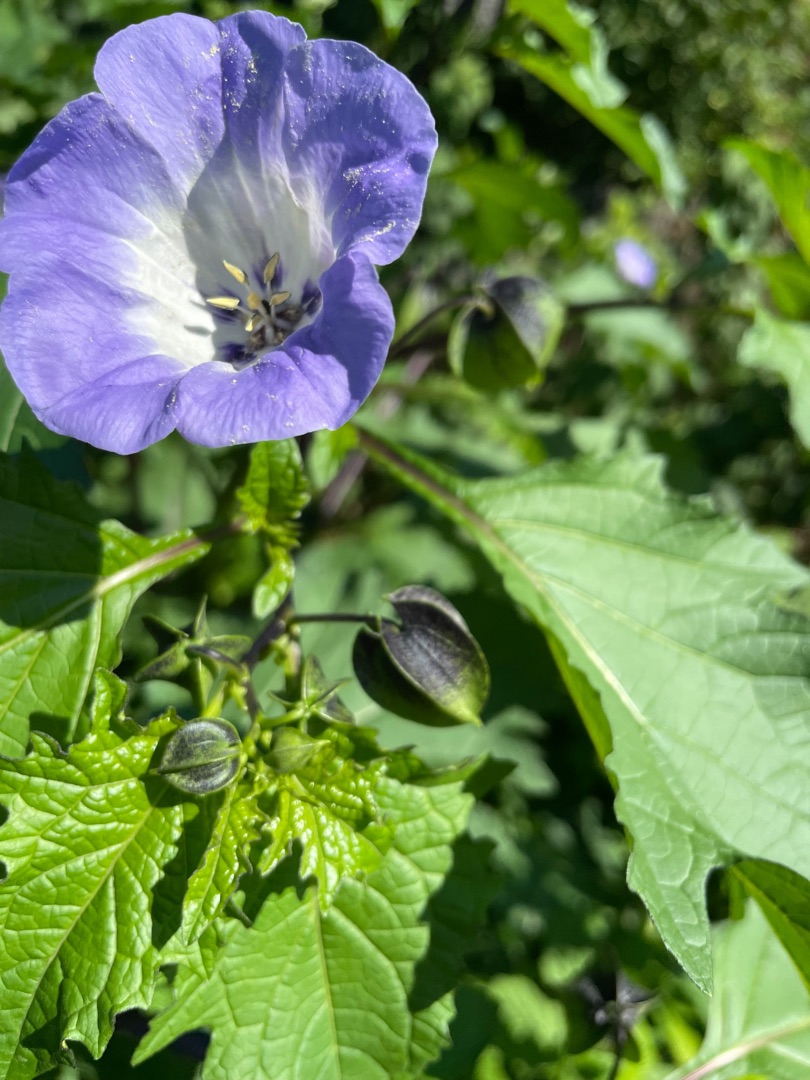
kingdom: Plantae
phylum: Tracheophyta
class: Magnoliopsida
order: Solanales
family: Solanaceae
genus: Nicandra
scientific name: Nicandra physalodes
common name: Kantbæger
